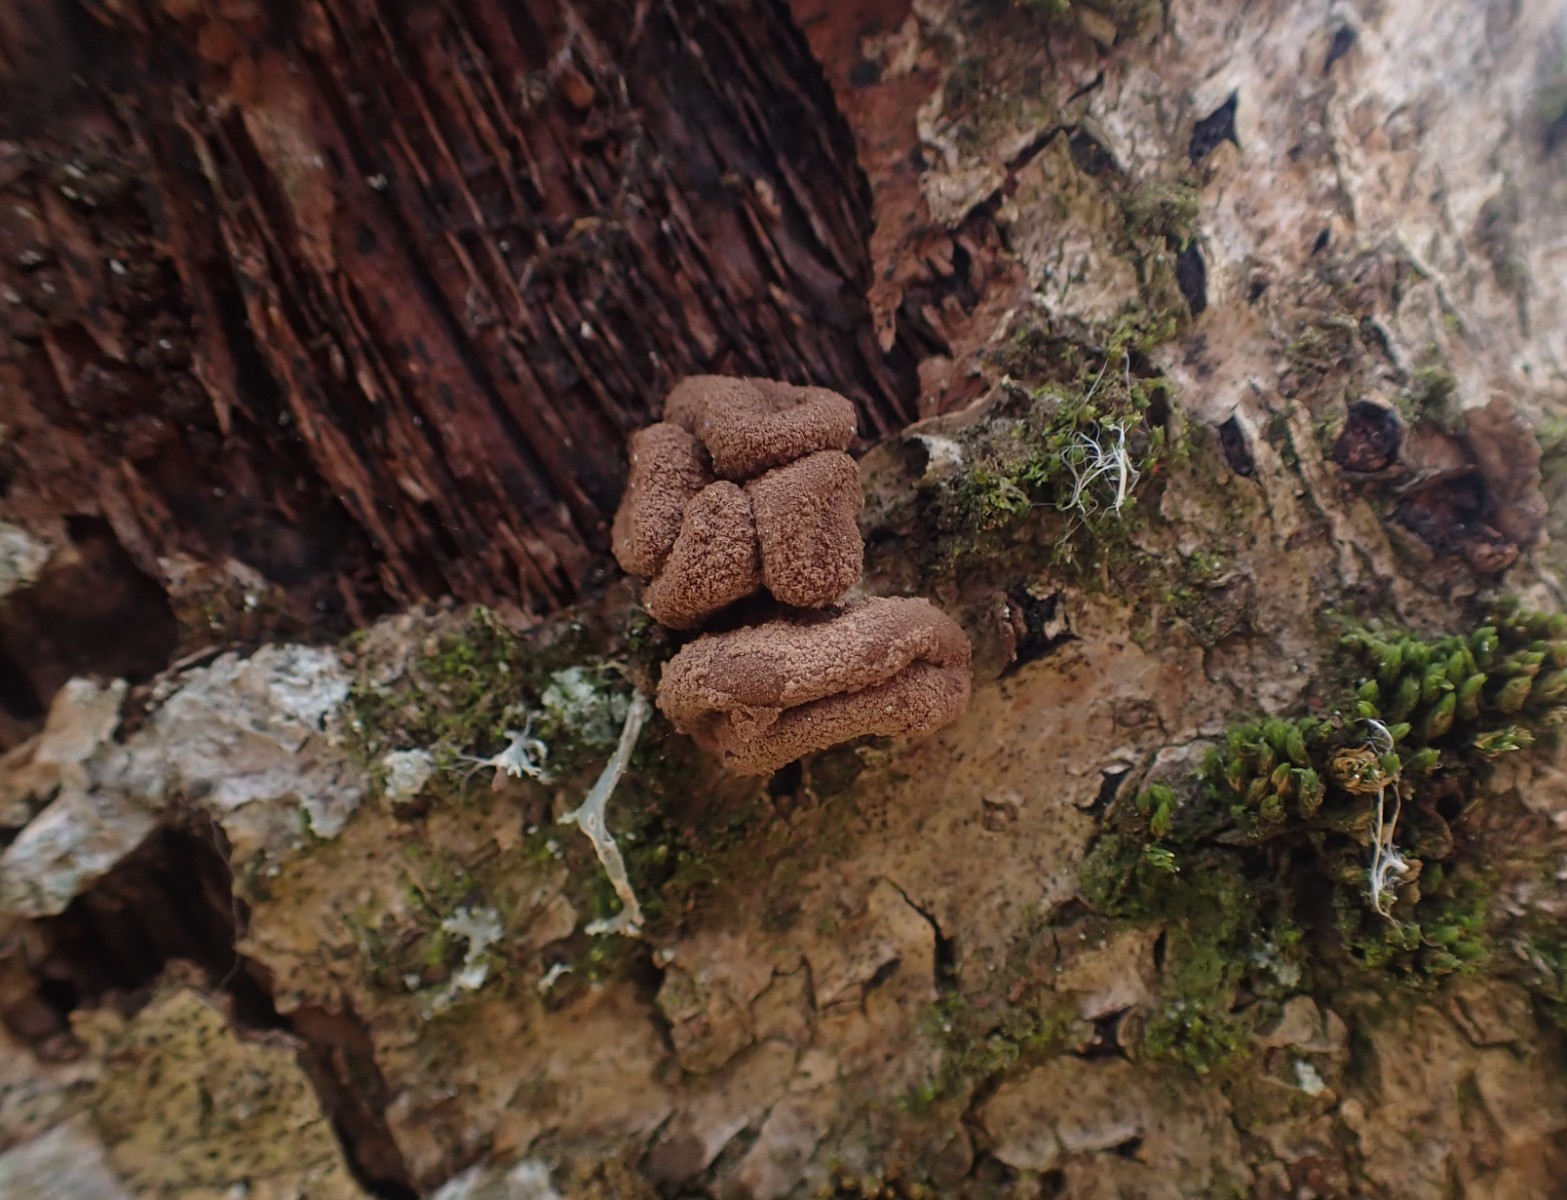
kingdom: Fungi
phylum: Ascomycota
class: Leotiomycetes
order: Helotiales
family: Cenangiaceae
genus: Encoelia
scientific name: Encoelia furfuracea
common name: hassel-læderskive
